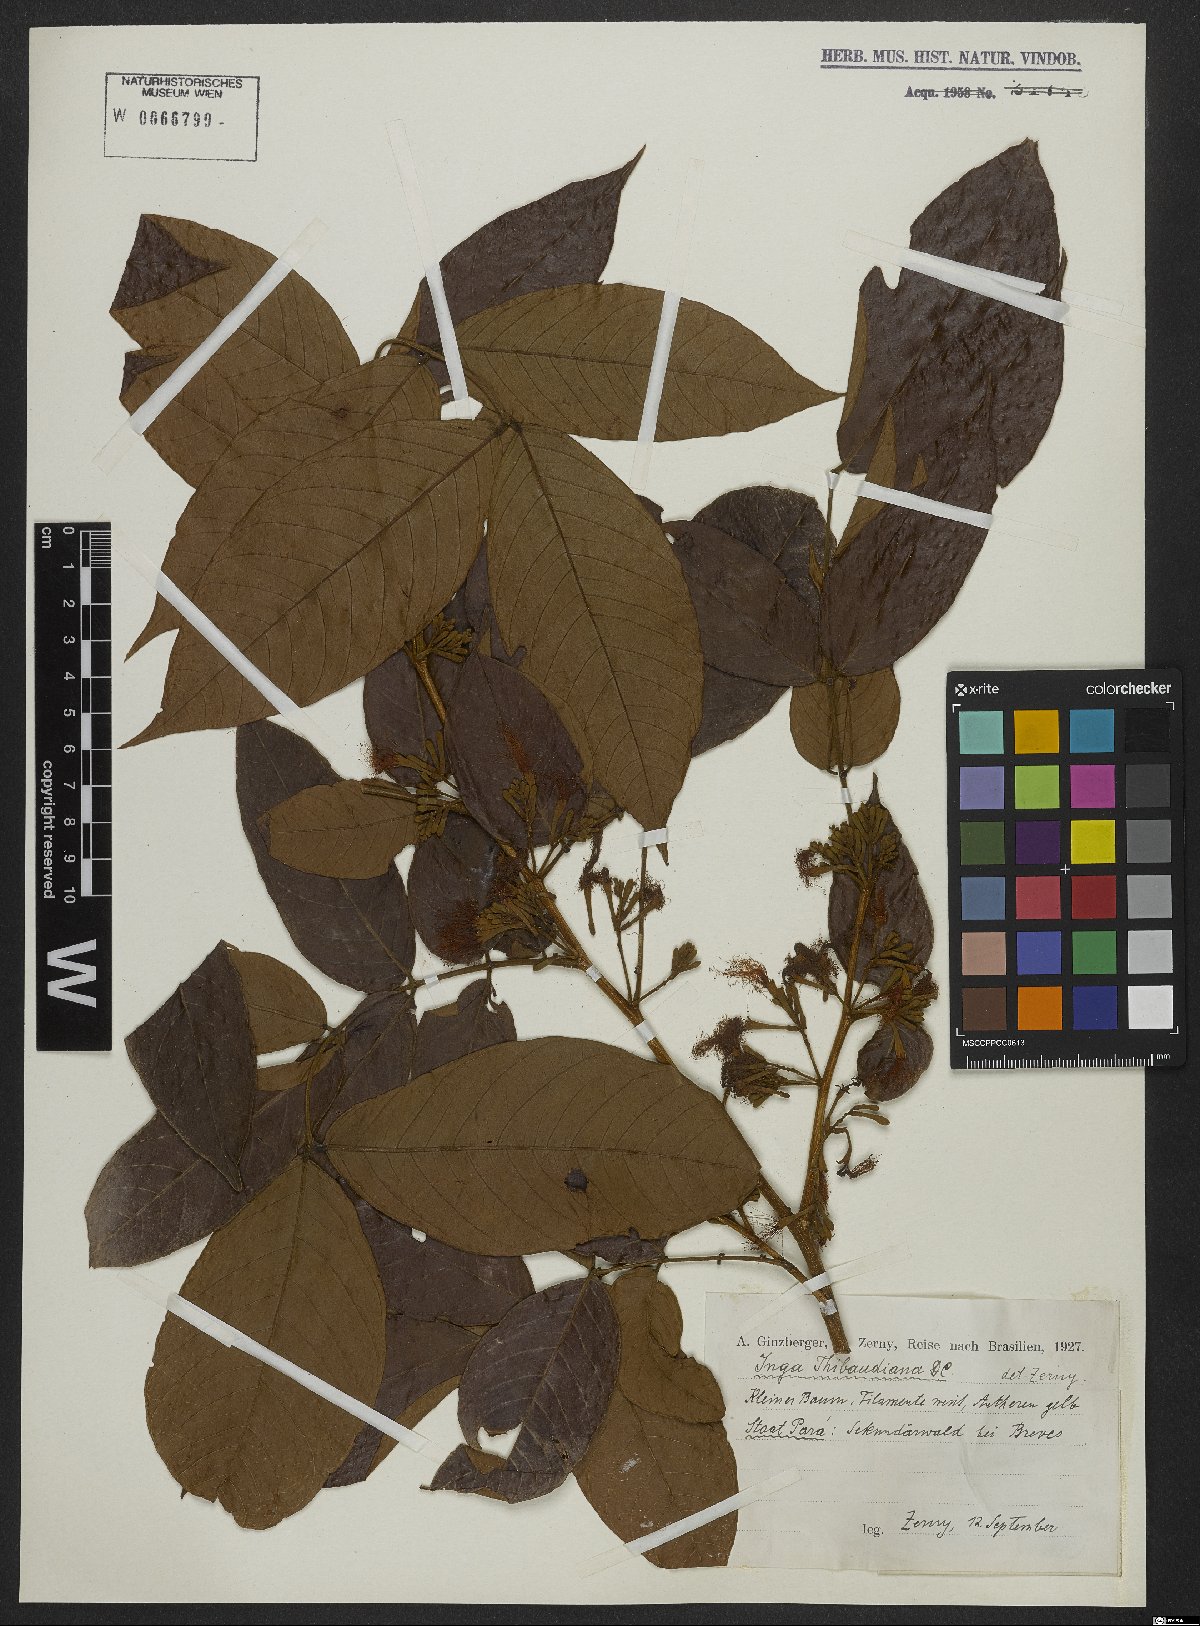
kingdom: Plantae
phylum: Tracheophyta
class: Magnoliopsida
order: Fabales
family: Fabaceae
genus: Inga
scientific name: Inga thibaudiana
